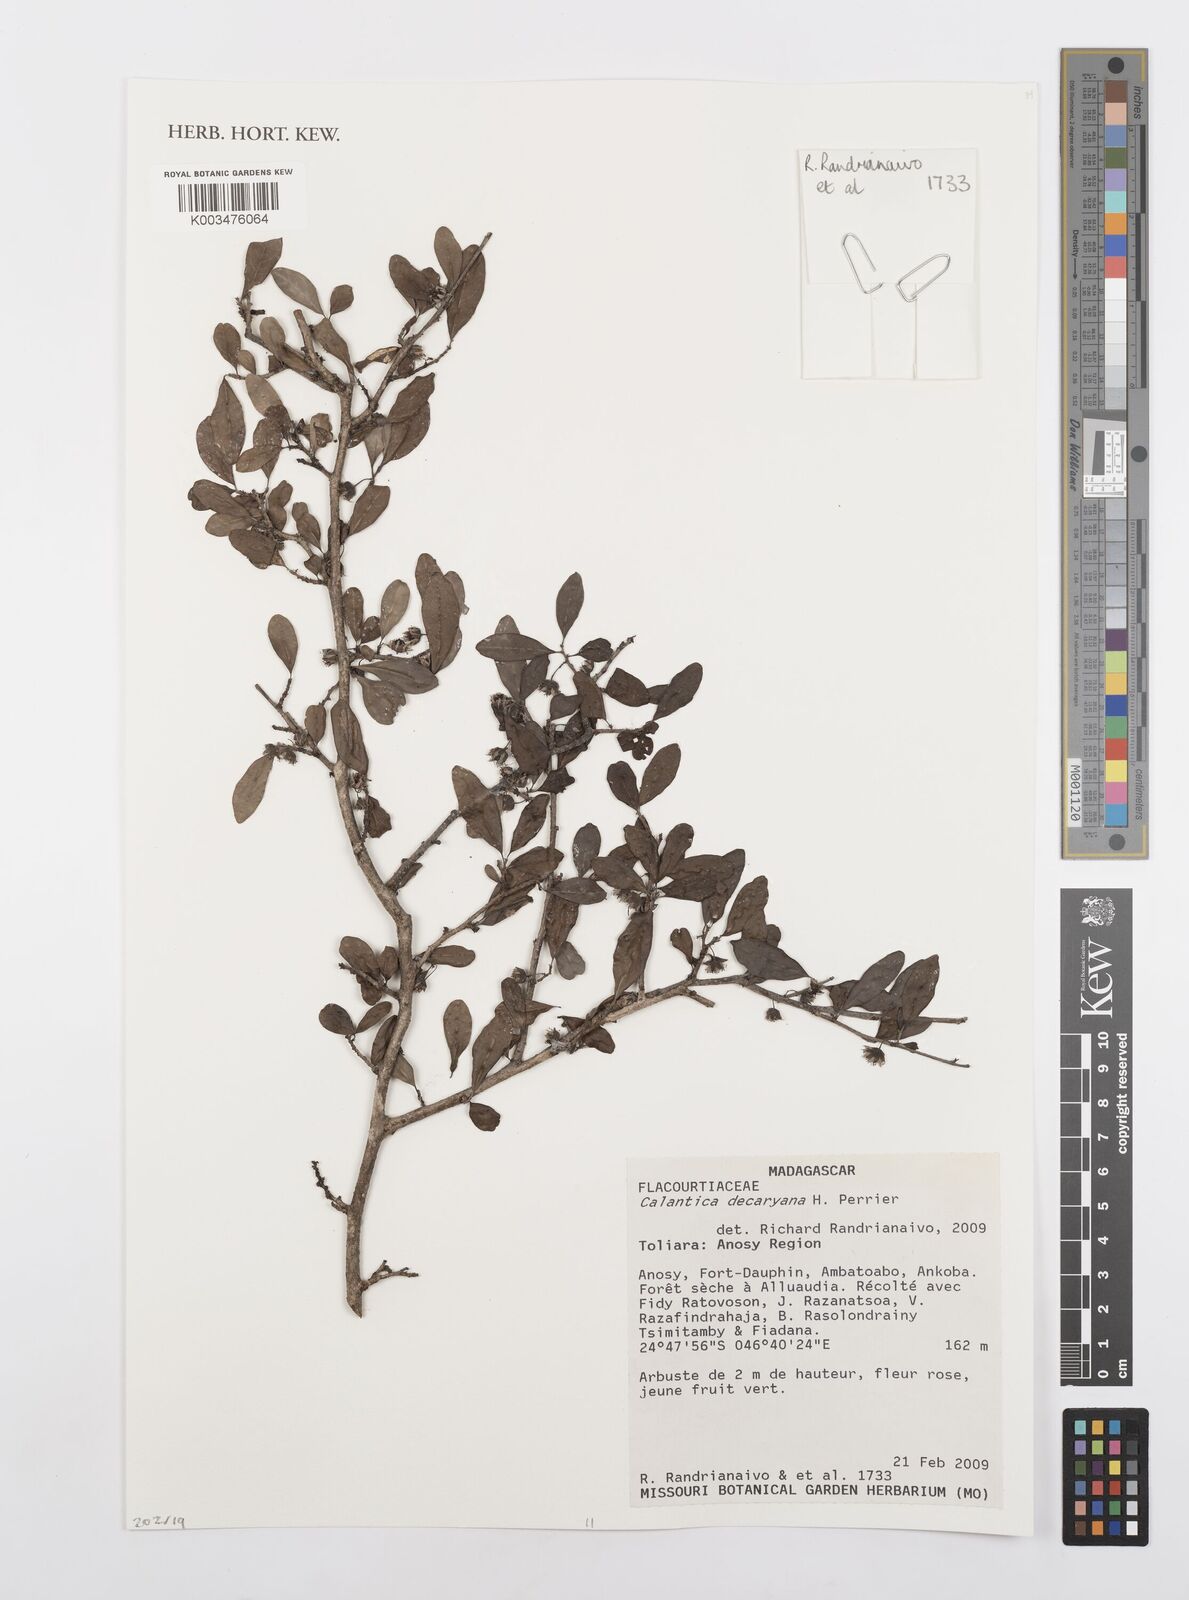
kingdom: Plantae
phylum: Tracheophyta
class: Magnoliopsida
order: Malpighiales
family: Salicaceae
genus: Calantica
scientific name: Calantica decaryana
